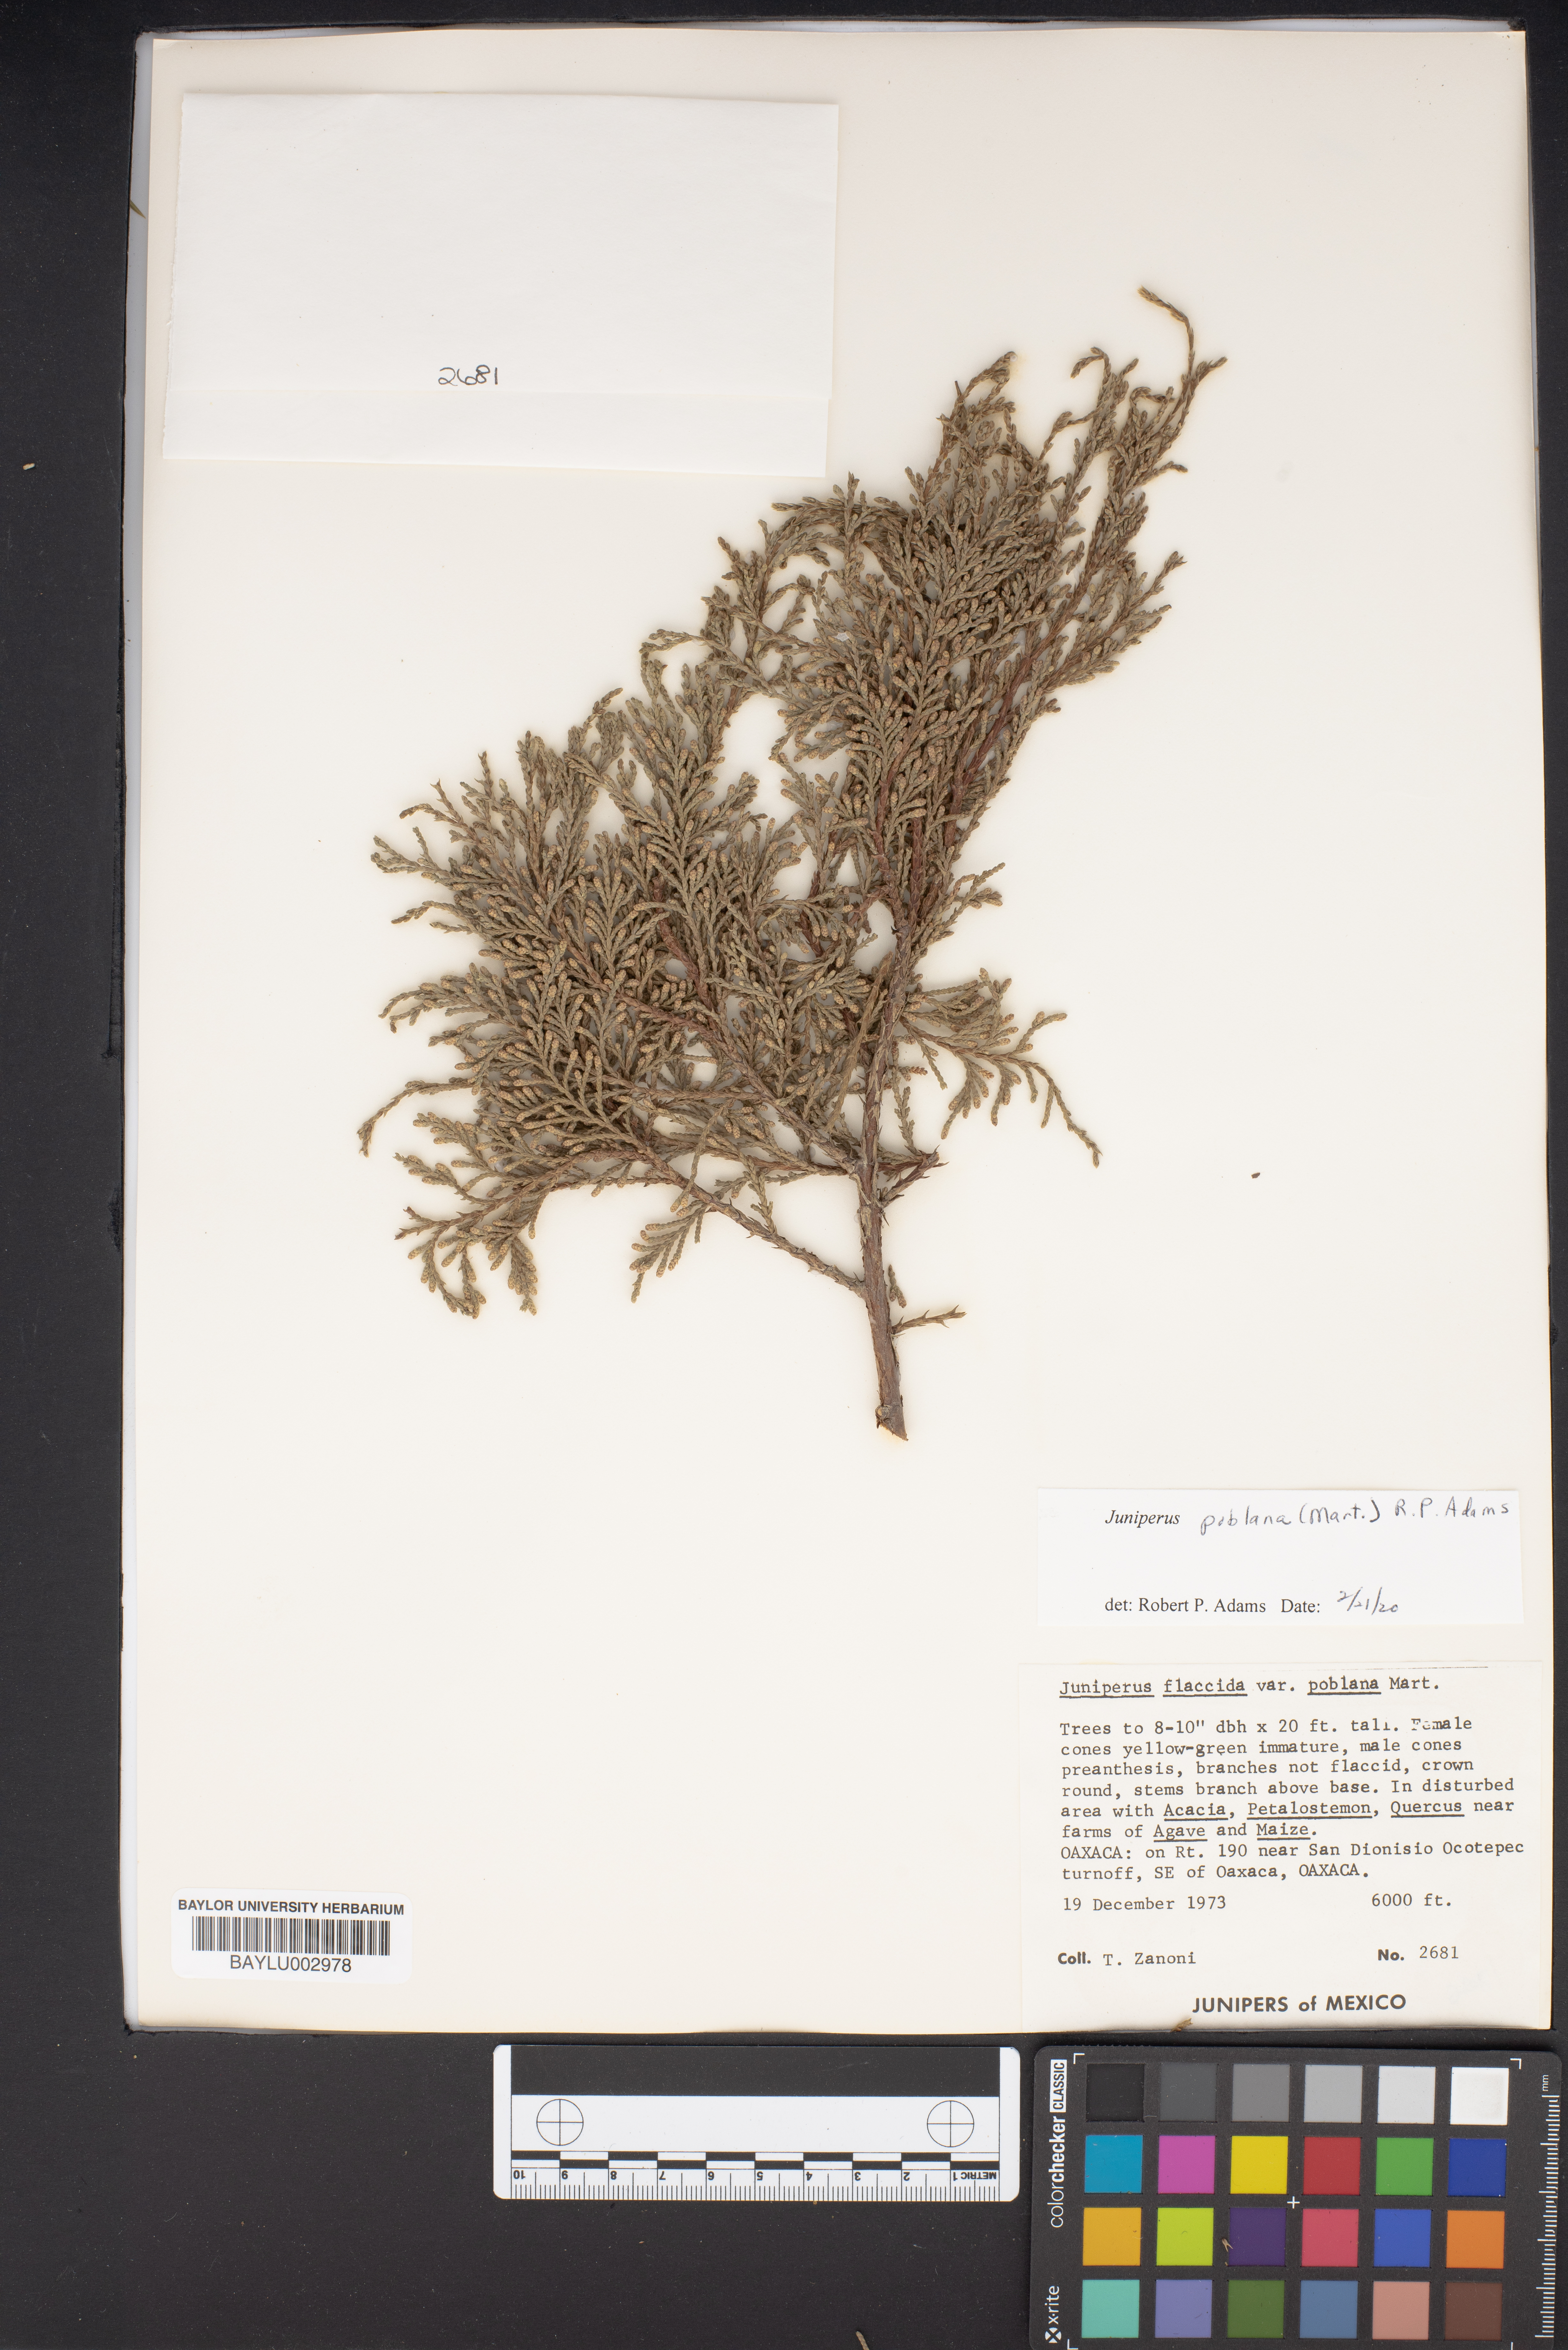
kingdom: Plantae
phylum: Tracheophyta
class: Pinopsida
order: Pinales
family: Cupressaceae
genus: Juniperus
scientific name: Juniperus flaccida
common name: Drooping juniper
